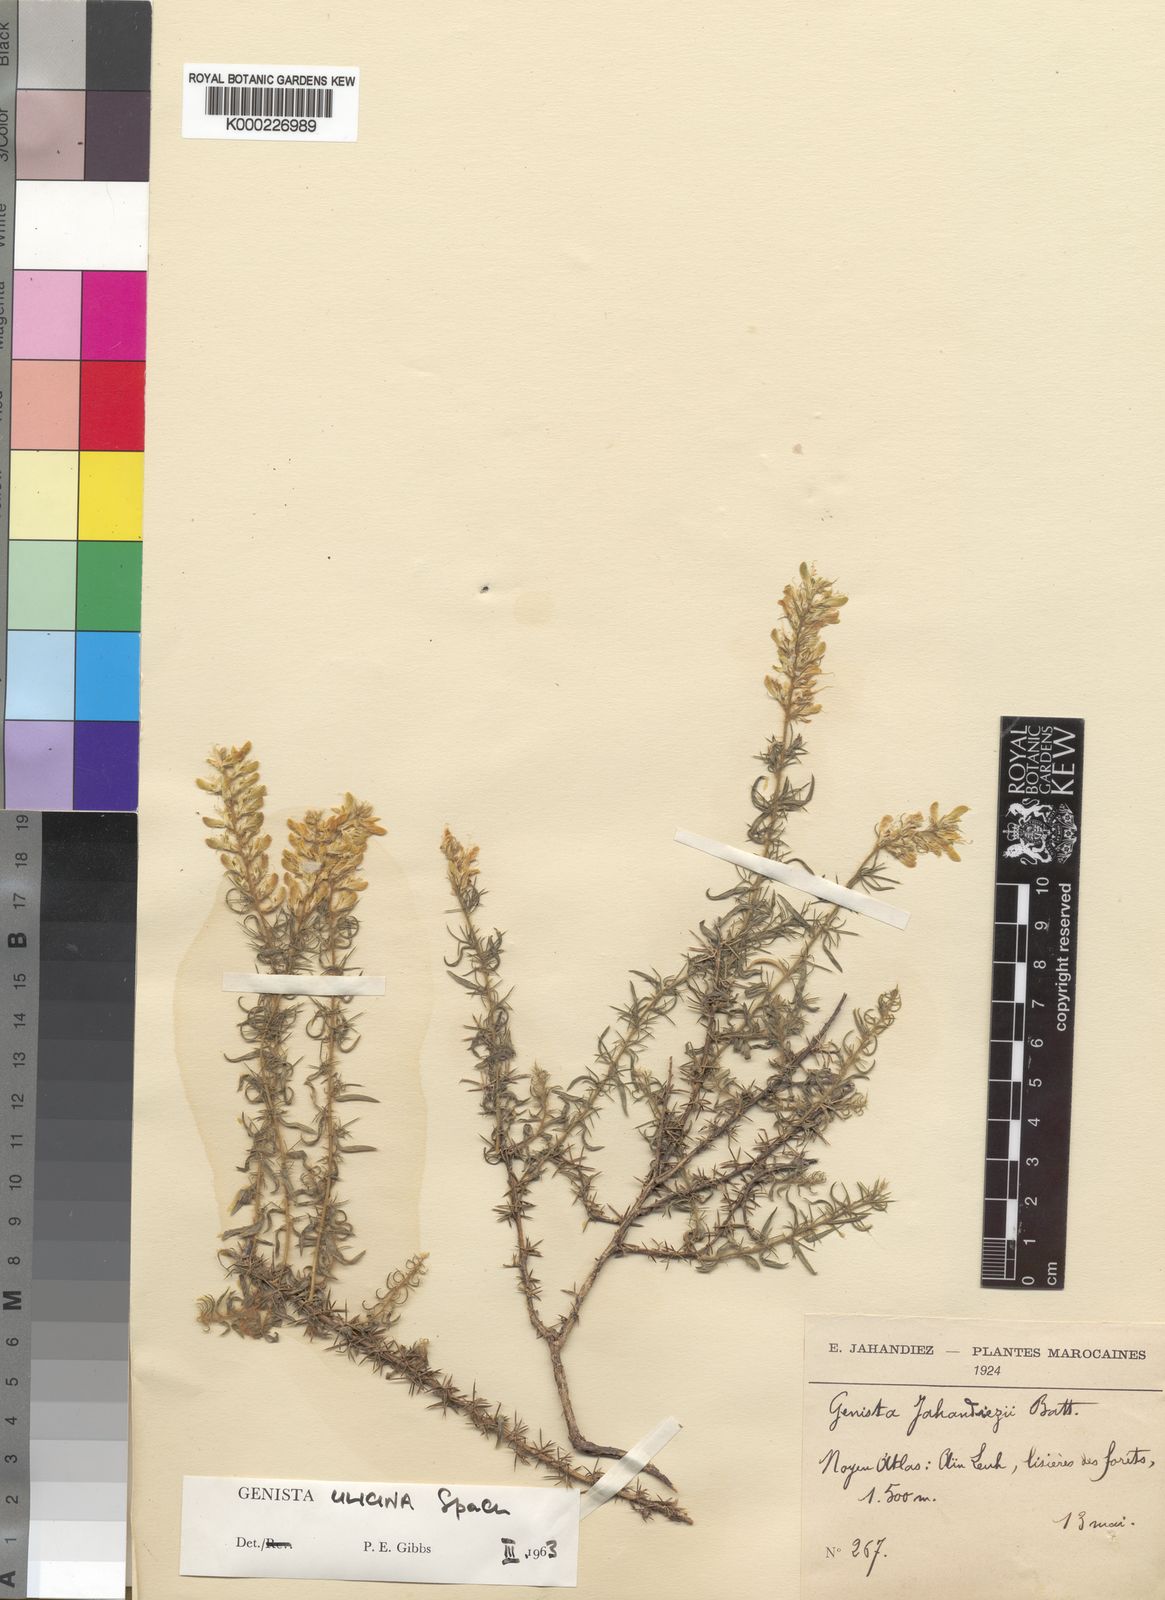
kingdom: Plantae
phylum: Tracheophyta
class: Magnoliopsida
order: Fabales
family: Fabaceae
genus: Genista
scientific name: Genista ulicina
